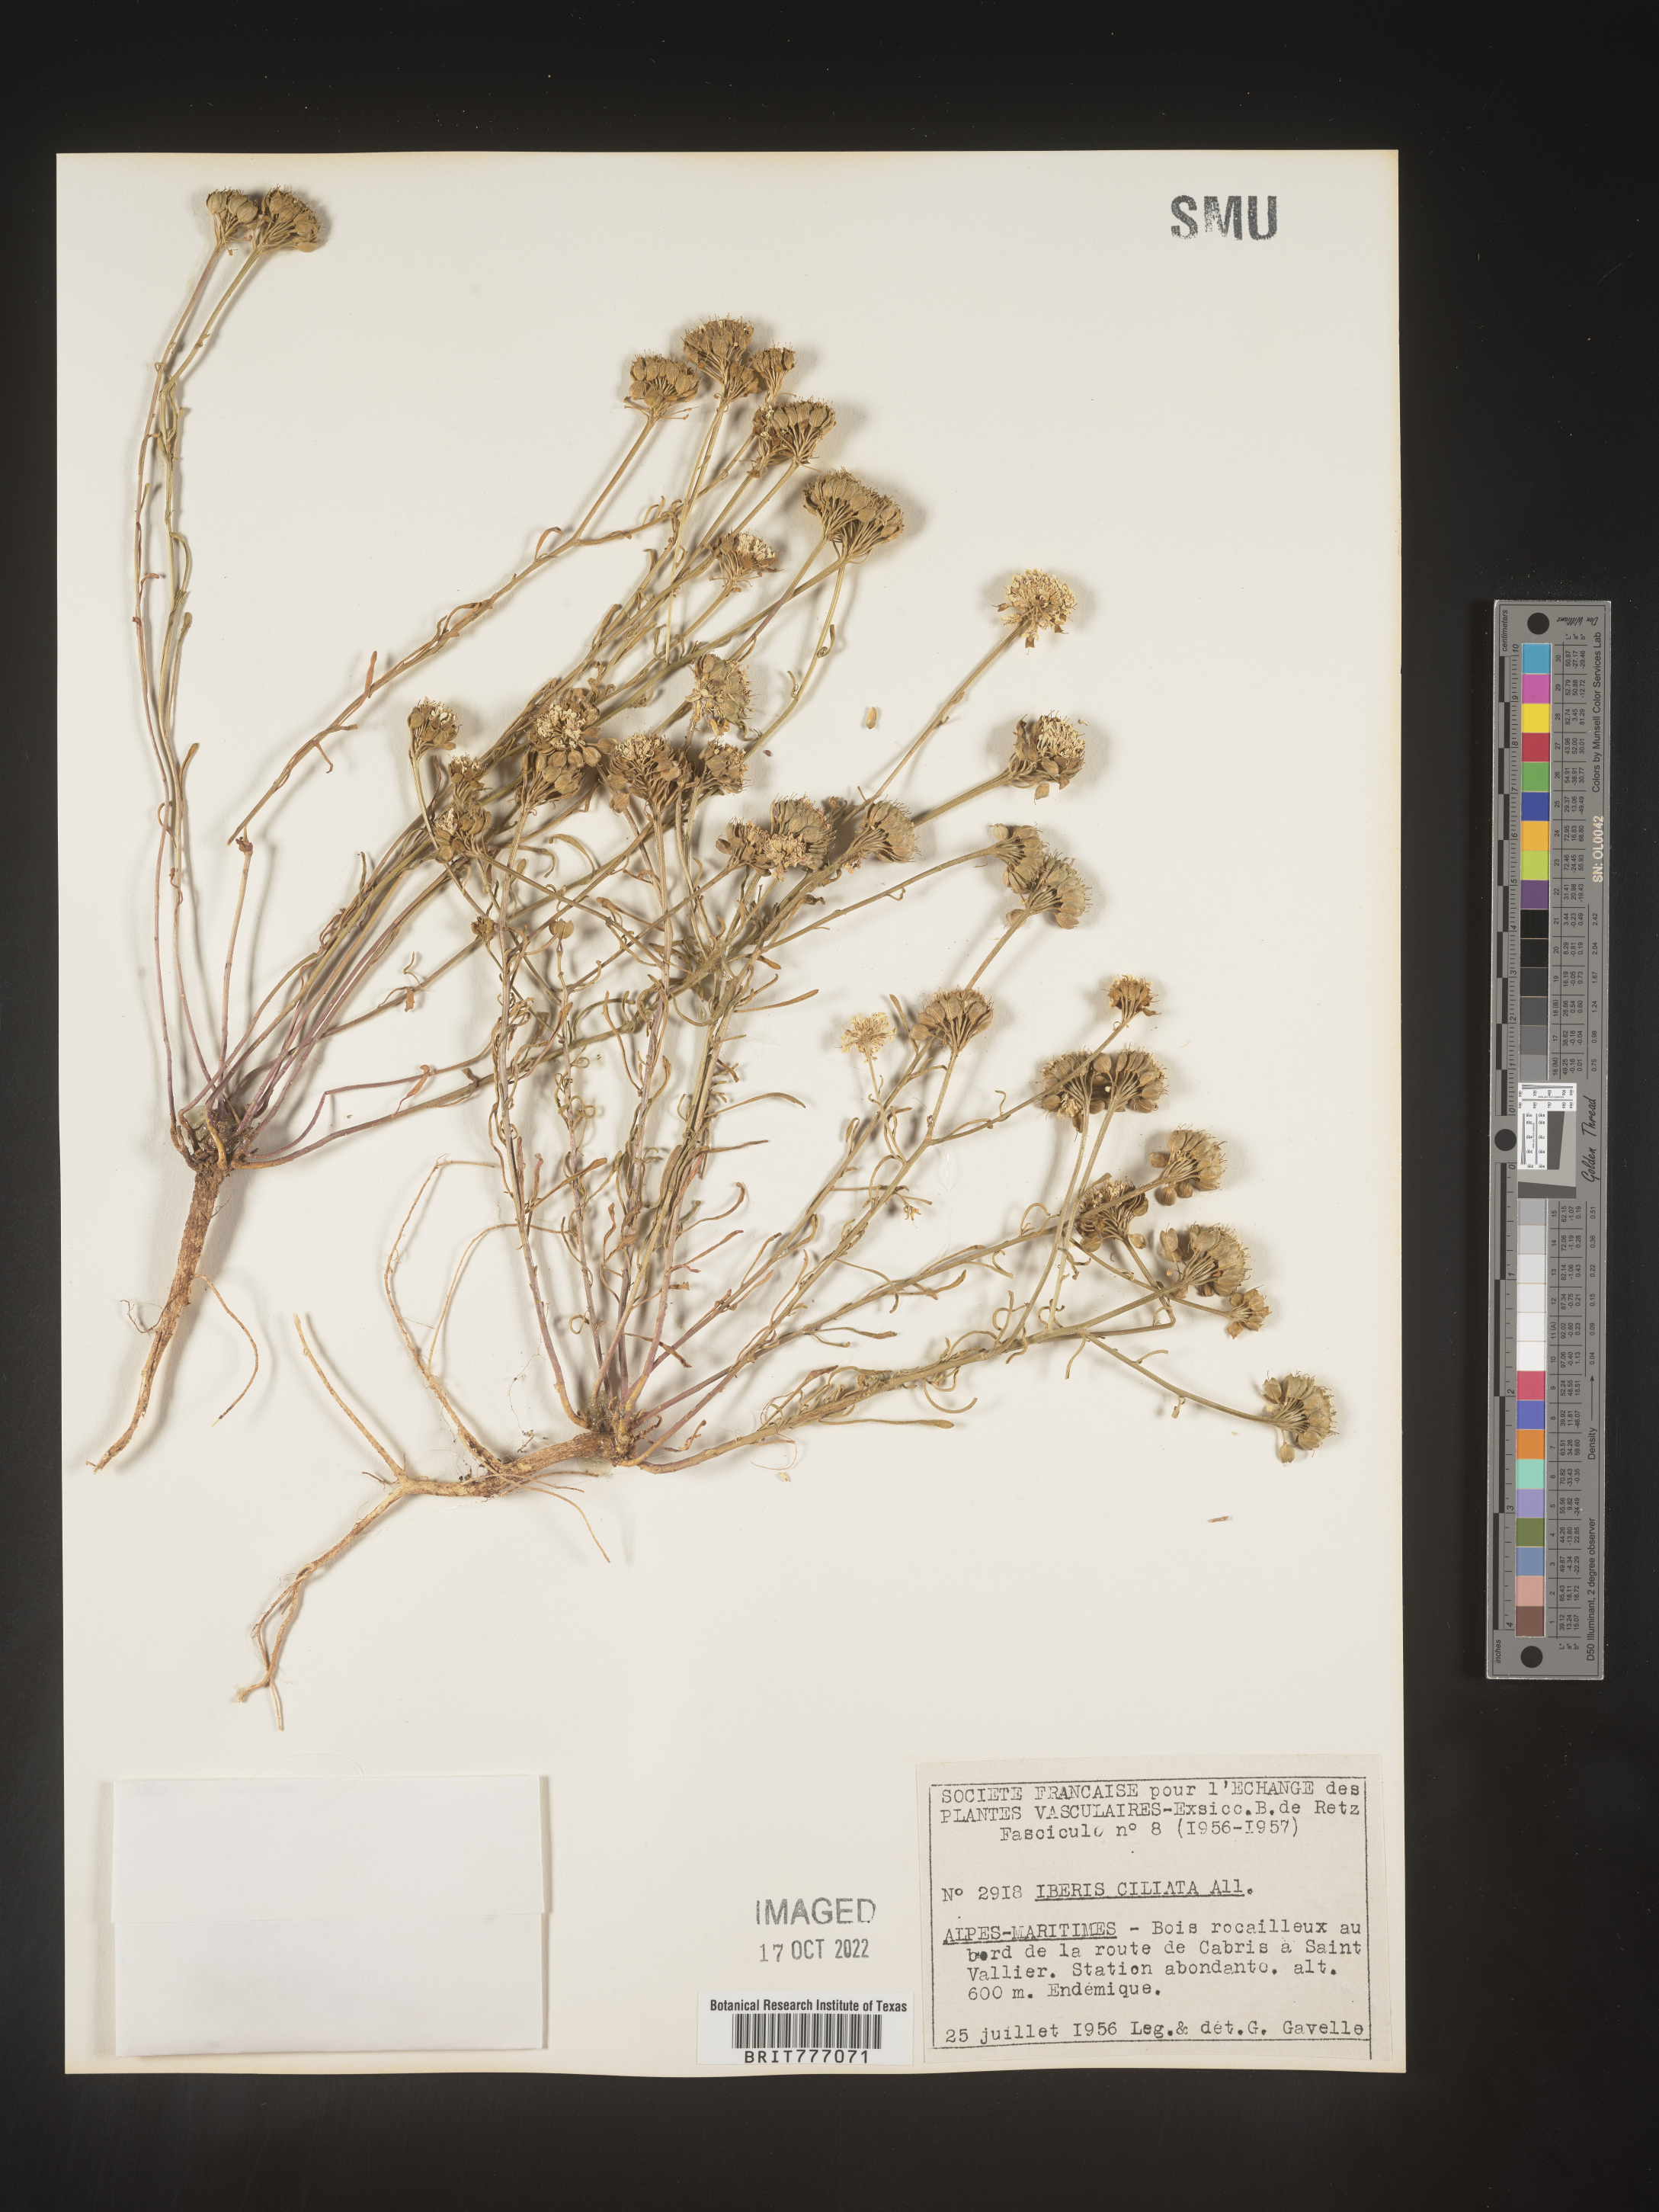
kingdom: Plantae
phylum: Tracheophyta
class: Magnoliopsida
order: Brassicales
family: Brassicaceae
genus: Iberis
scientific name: Iberis
